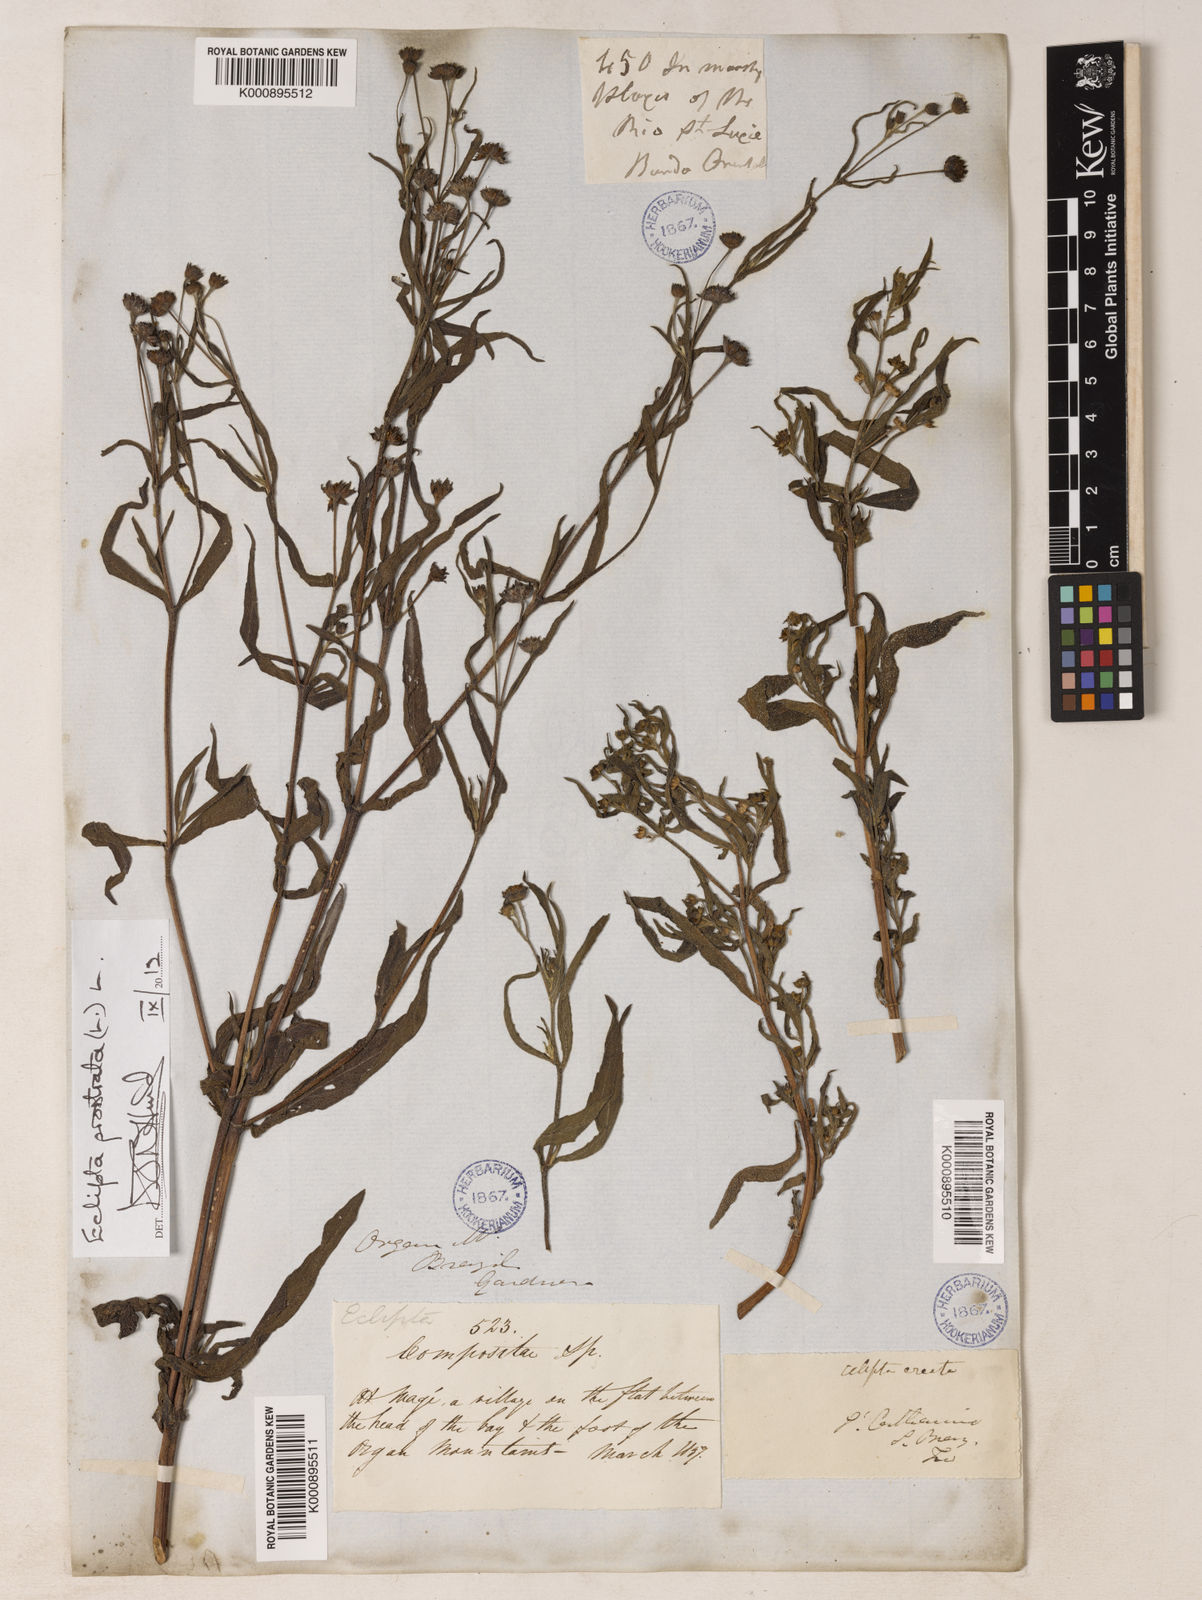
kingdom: Plantae
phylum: Tracheophyta
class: Magnoliopsida
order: Asterales
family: Asteraceae
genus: Eclipta
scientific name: Eclipta prostrata
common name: False daisy
